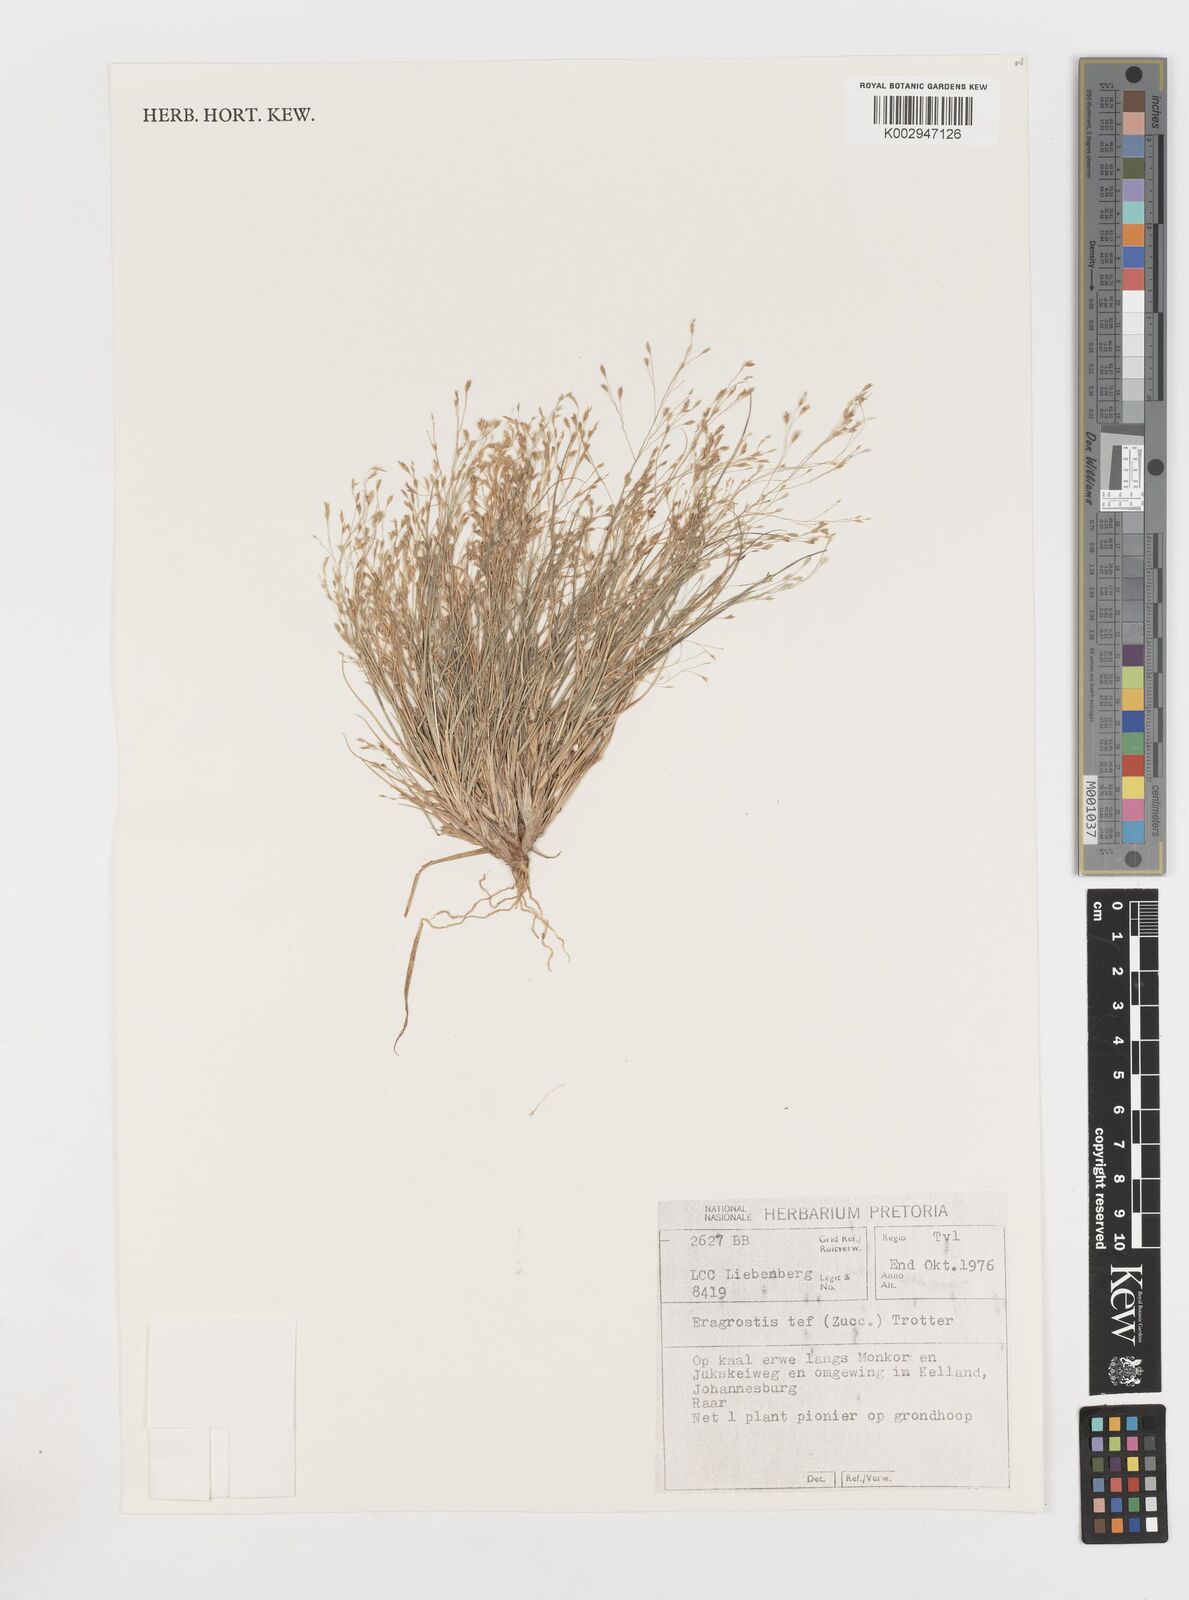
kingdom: Plantae
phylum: Tracheophyta
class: Liliopsida
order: Poales
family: Poaceae
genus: Eragrostis
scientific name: Eragrostis tef
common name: Teff
